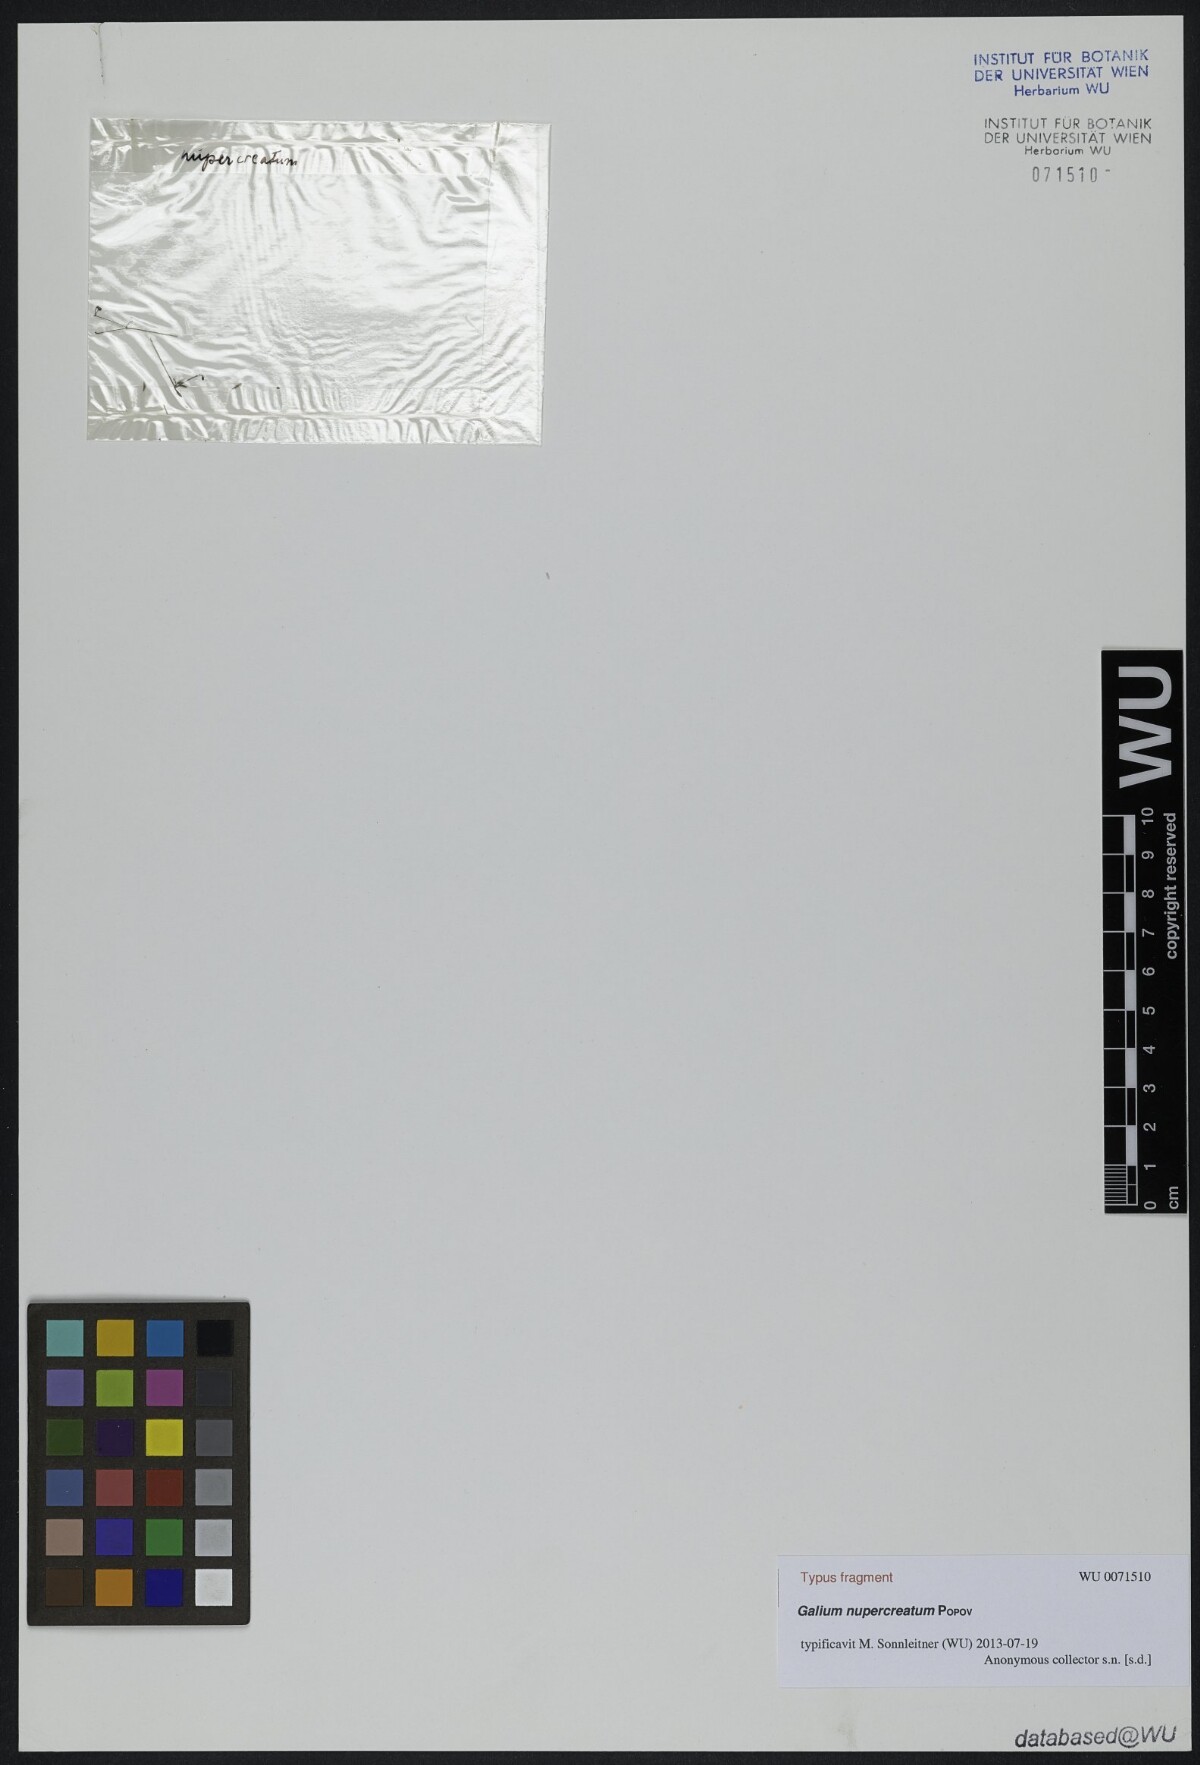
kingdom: Plantae
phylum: Tracheophyta
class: Magnoliopsida
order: Gentianales
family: Rubiaceae
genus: Galium
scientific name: Galium nupercreatum
